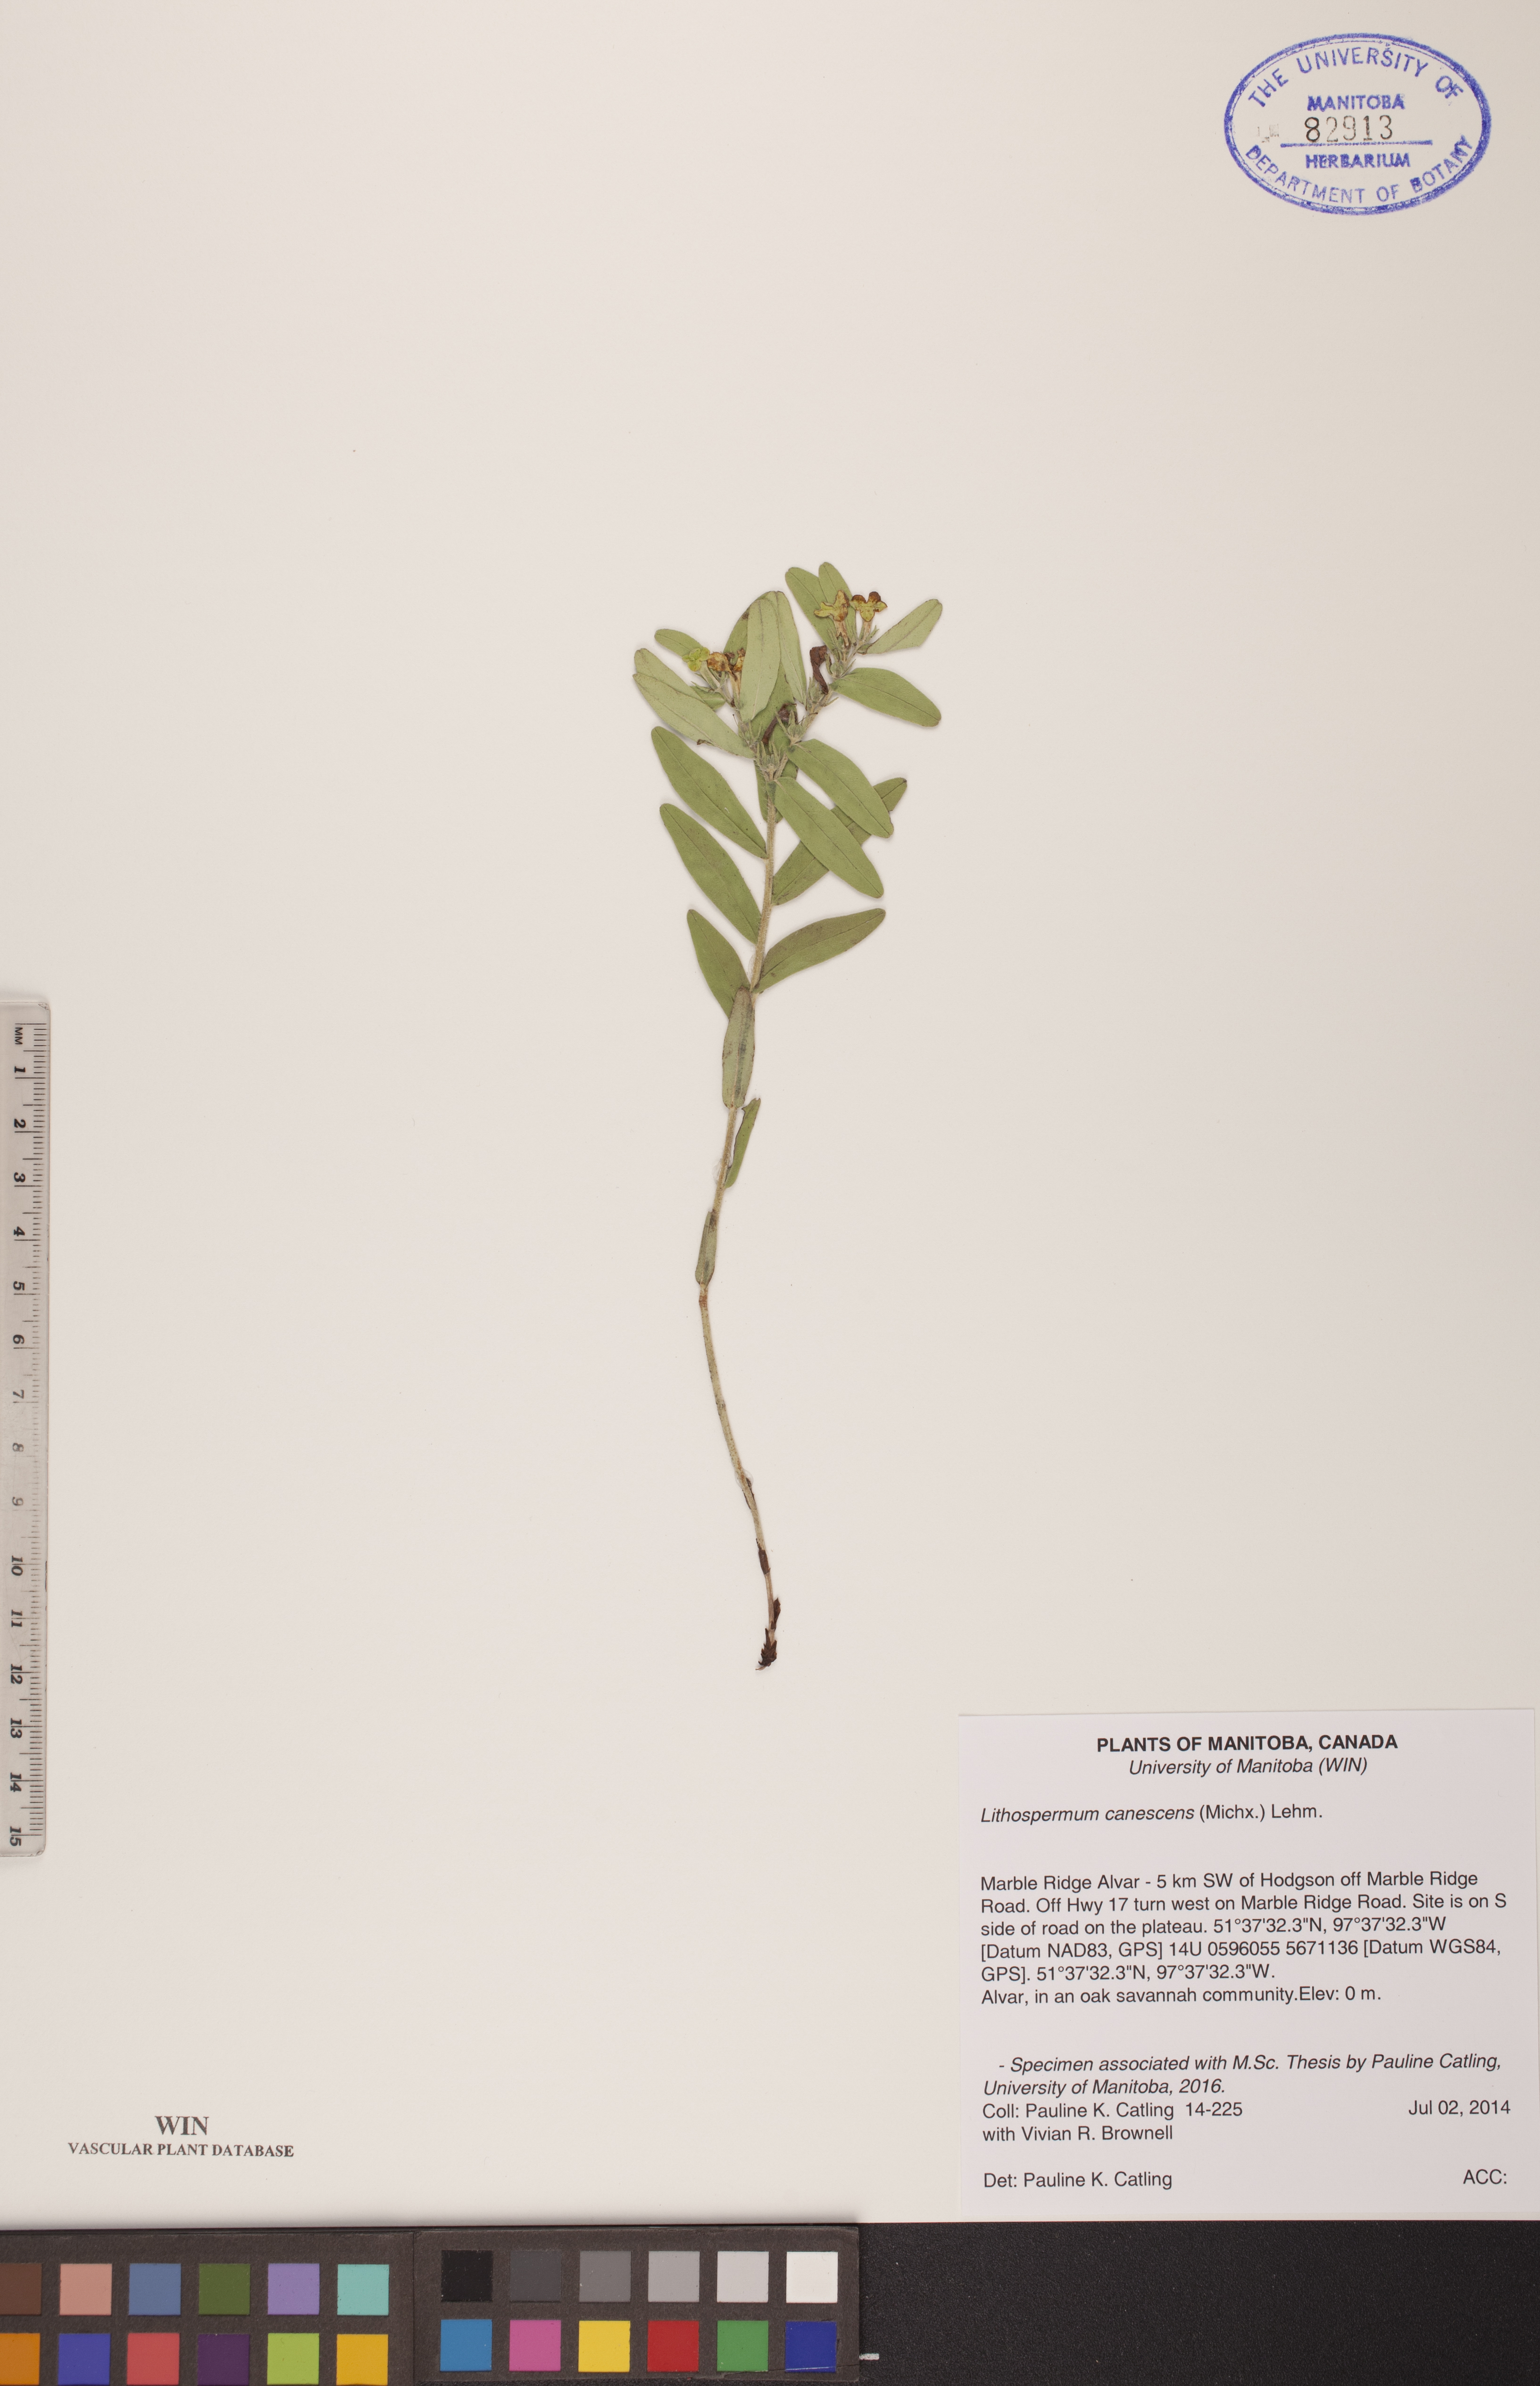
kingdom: Plantae
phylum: Tracheophyta
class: Magnoliopsida
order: Boraginales
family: Boraginaceae
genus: Lithospermum
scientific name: Lithospermum canescens
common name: Hoary puccoon
